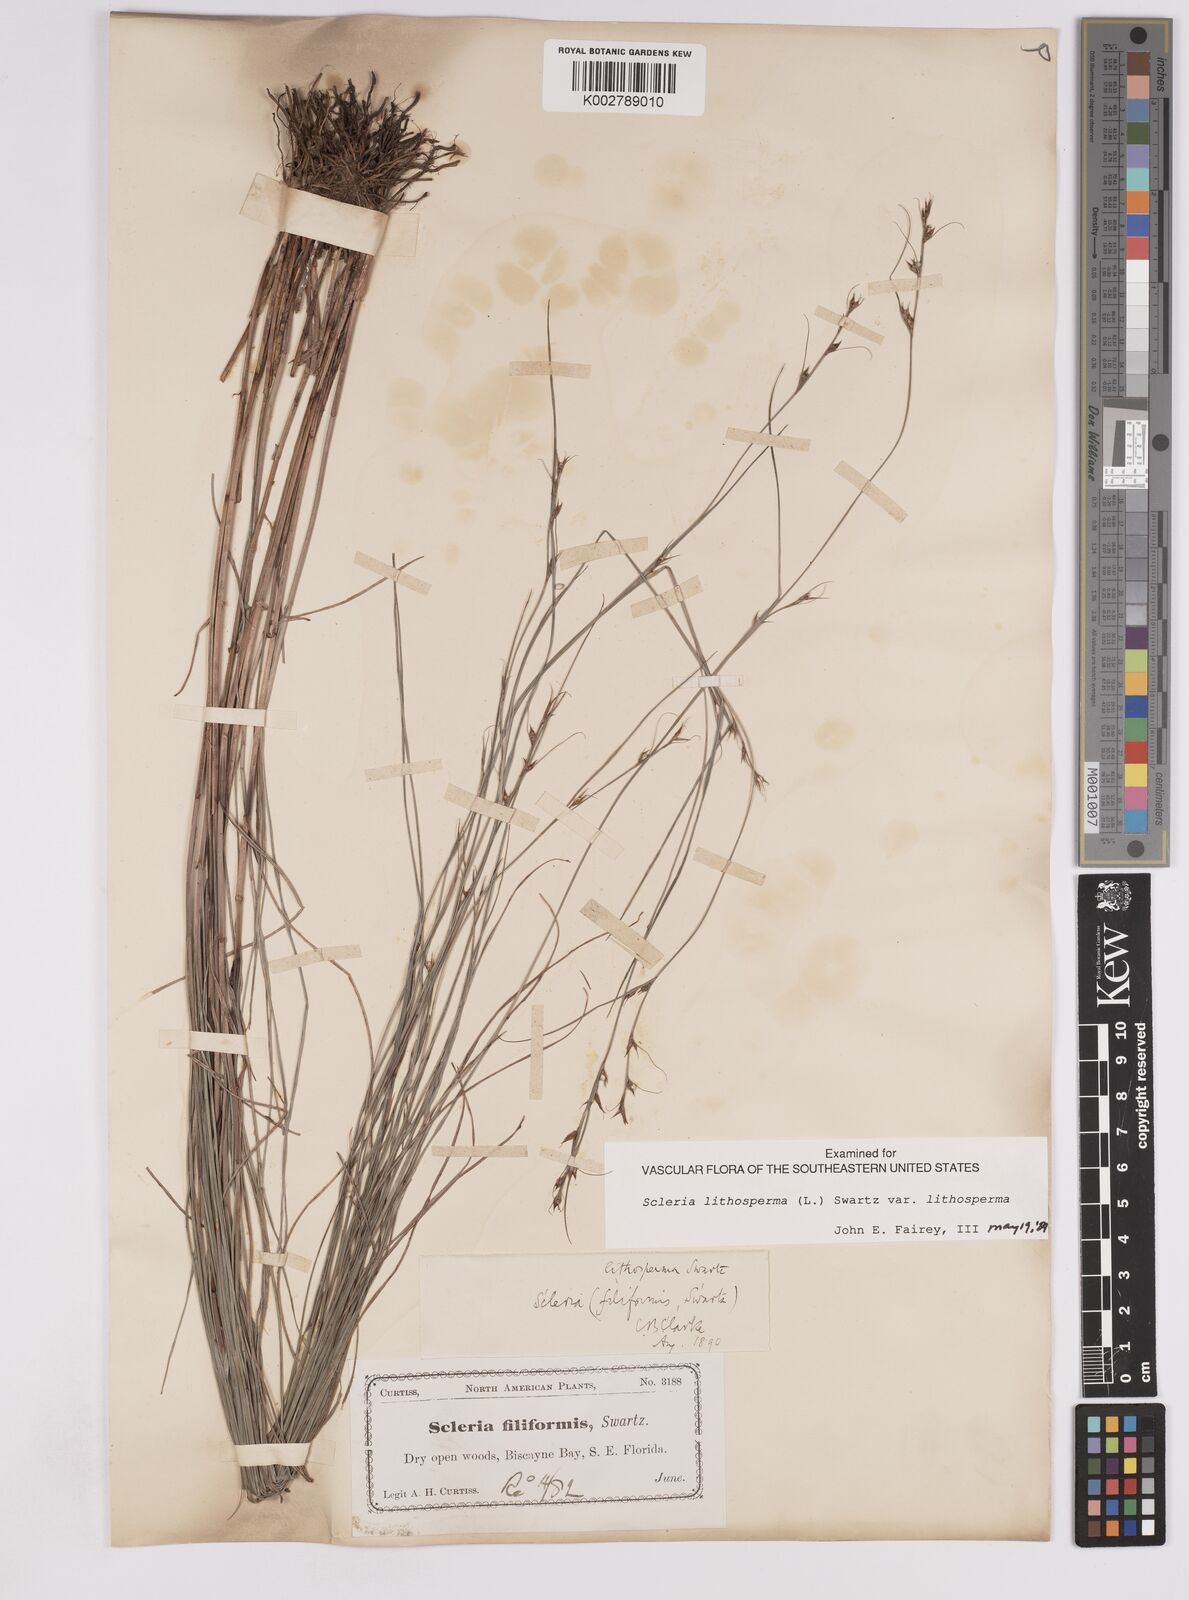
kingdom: Plantae
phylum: Tracheophyta
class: Liliopsida
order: Poales
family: Cyperaceae
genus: Scleria
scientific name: Scleria lithosperma
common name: Florida keys nut-rush
